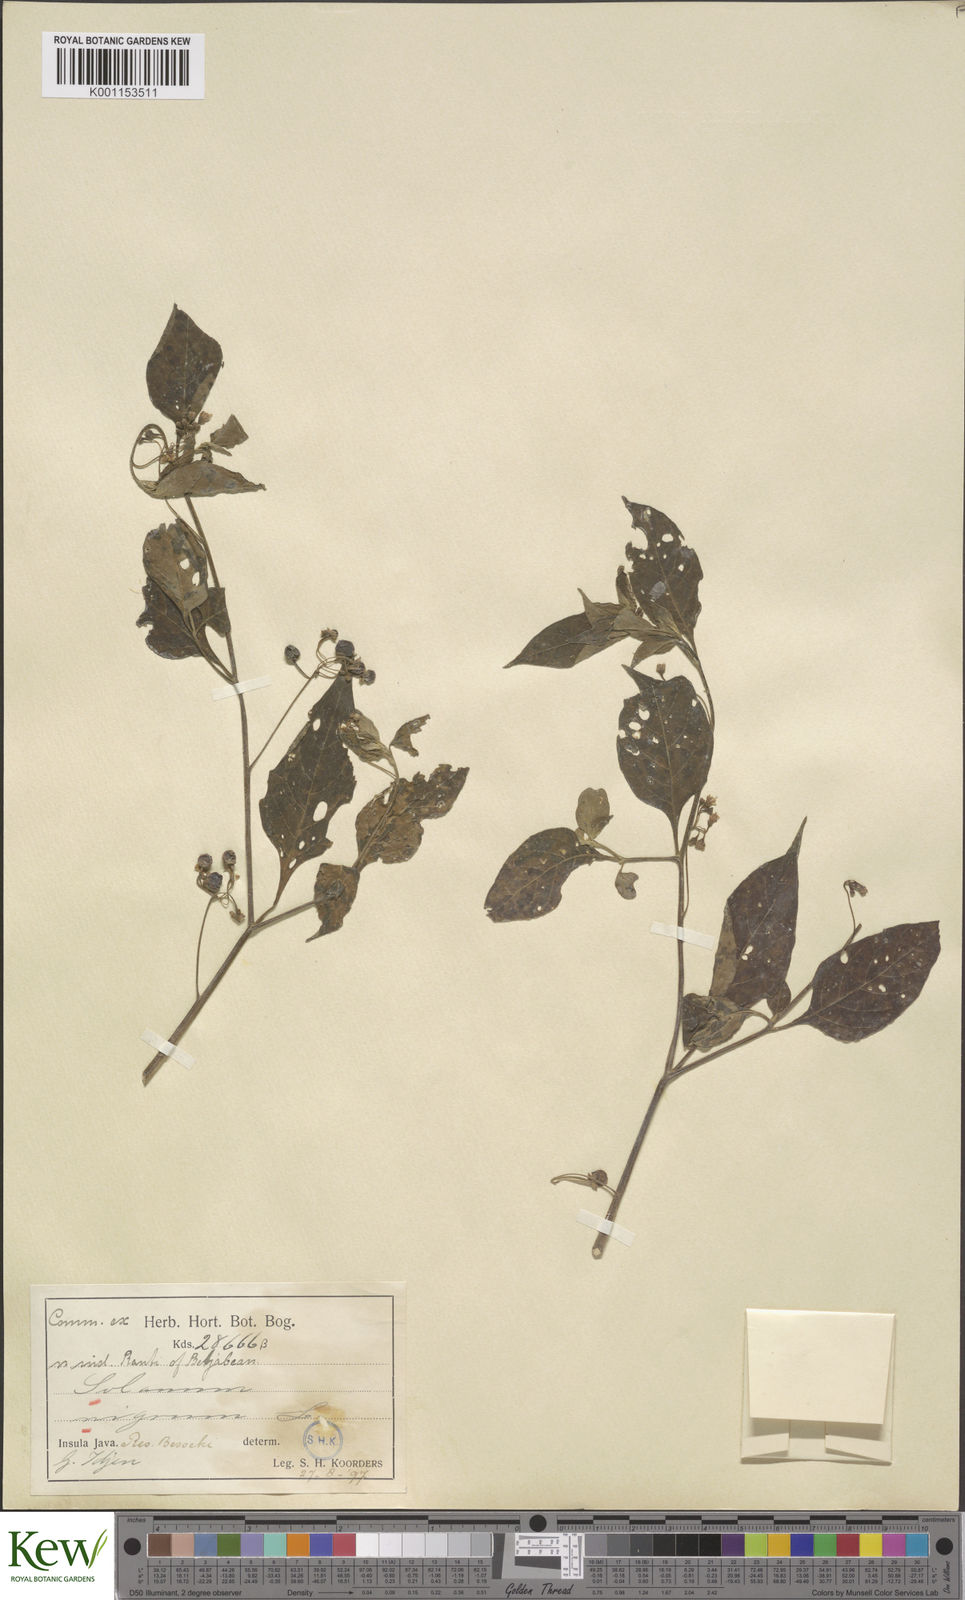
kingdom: Plantae
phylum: Tracheophyta
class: Magnoliopsida
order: Solanales
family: Solanaceae
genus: Solanum
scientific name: Solanum nigrum
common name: Black nightshade
